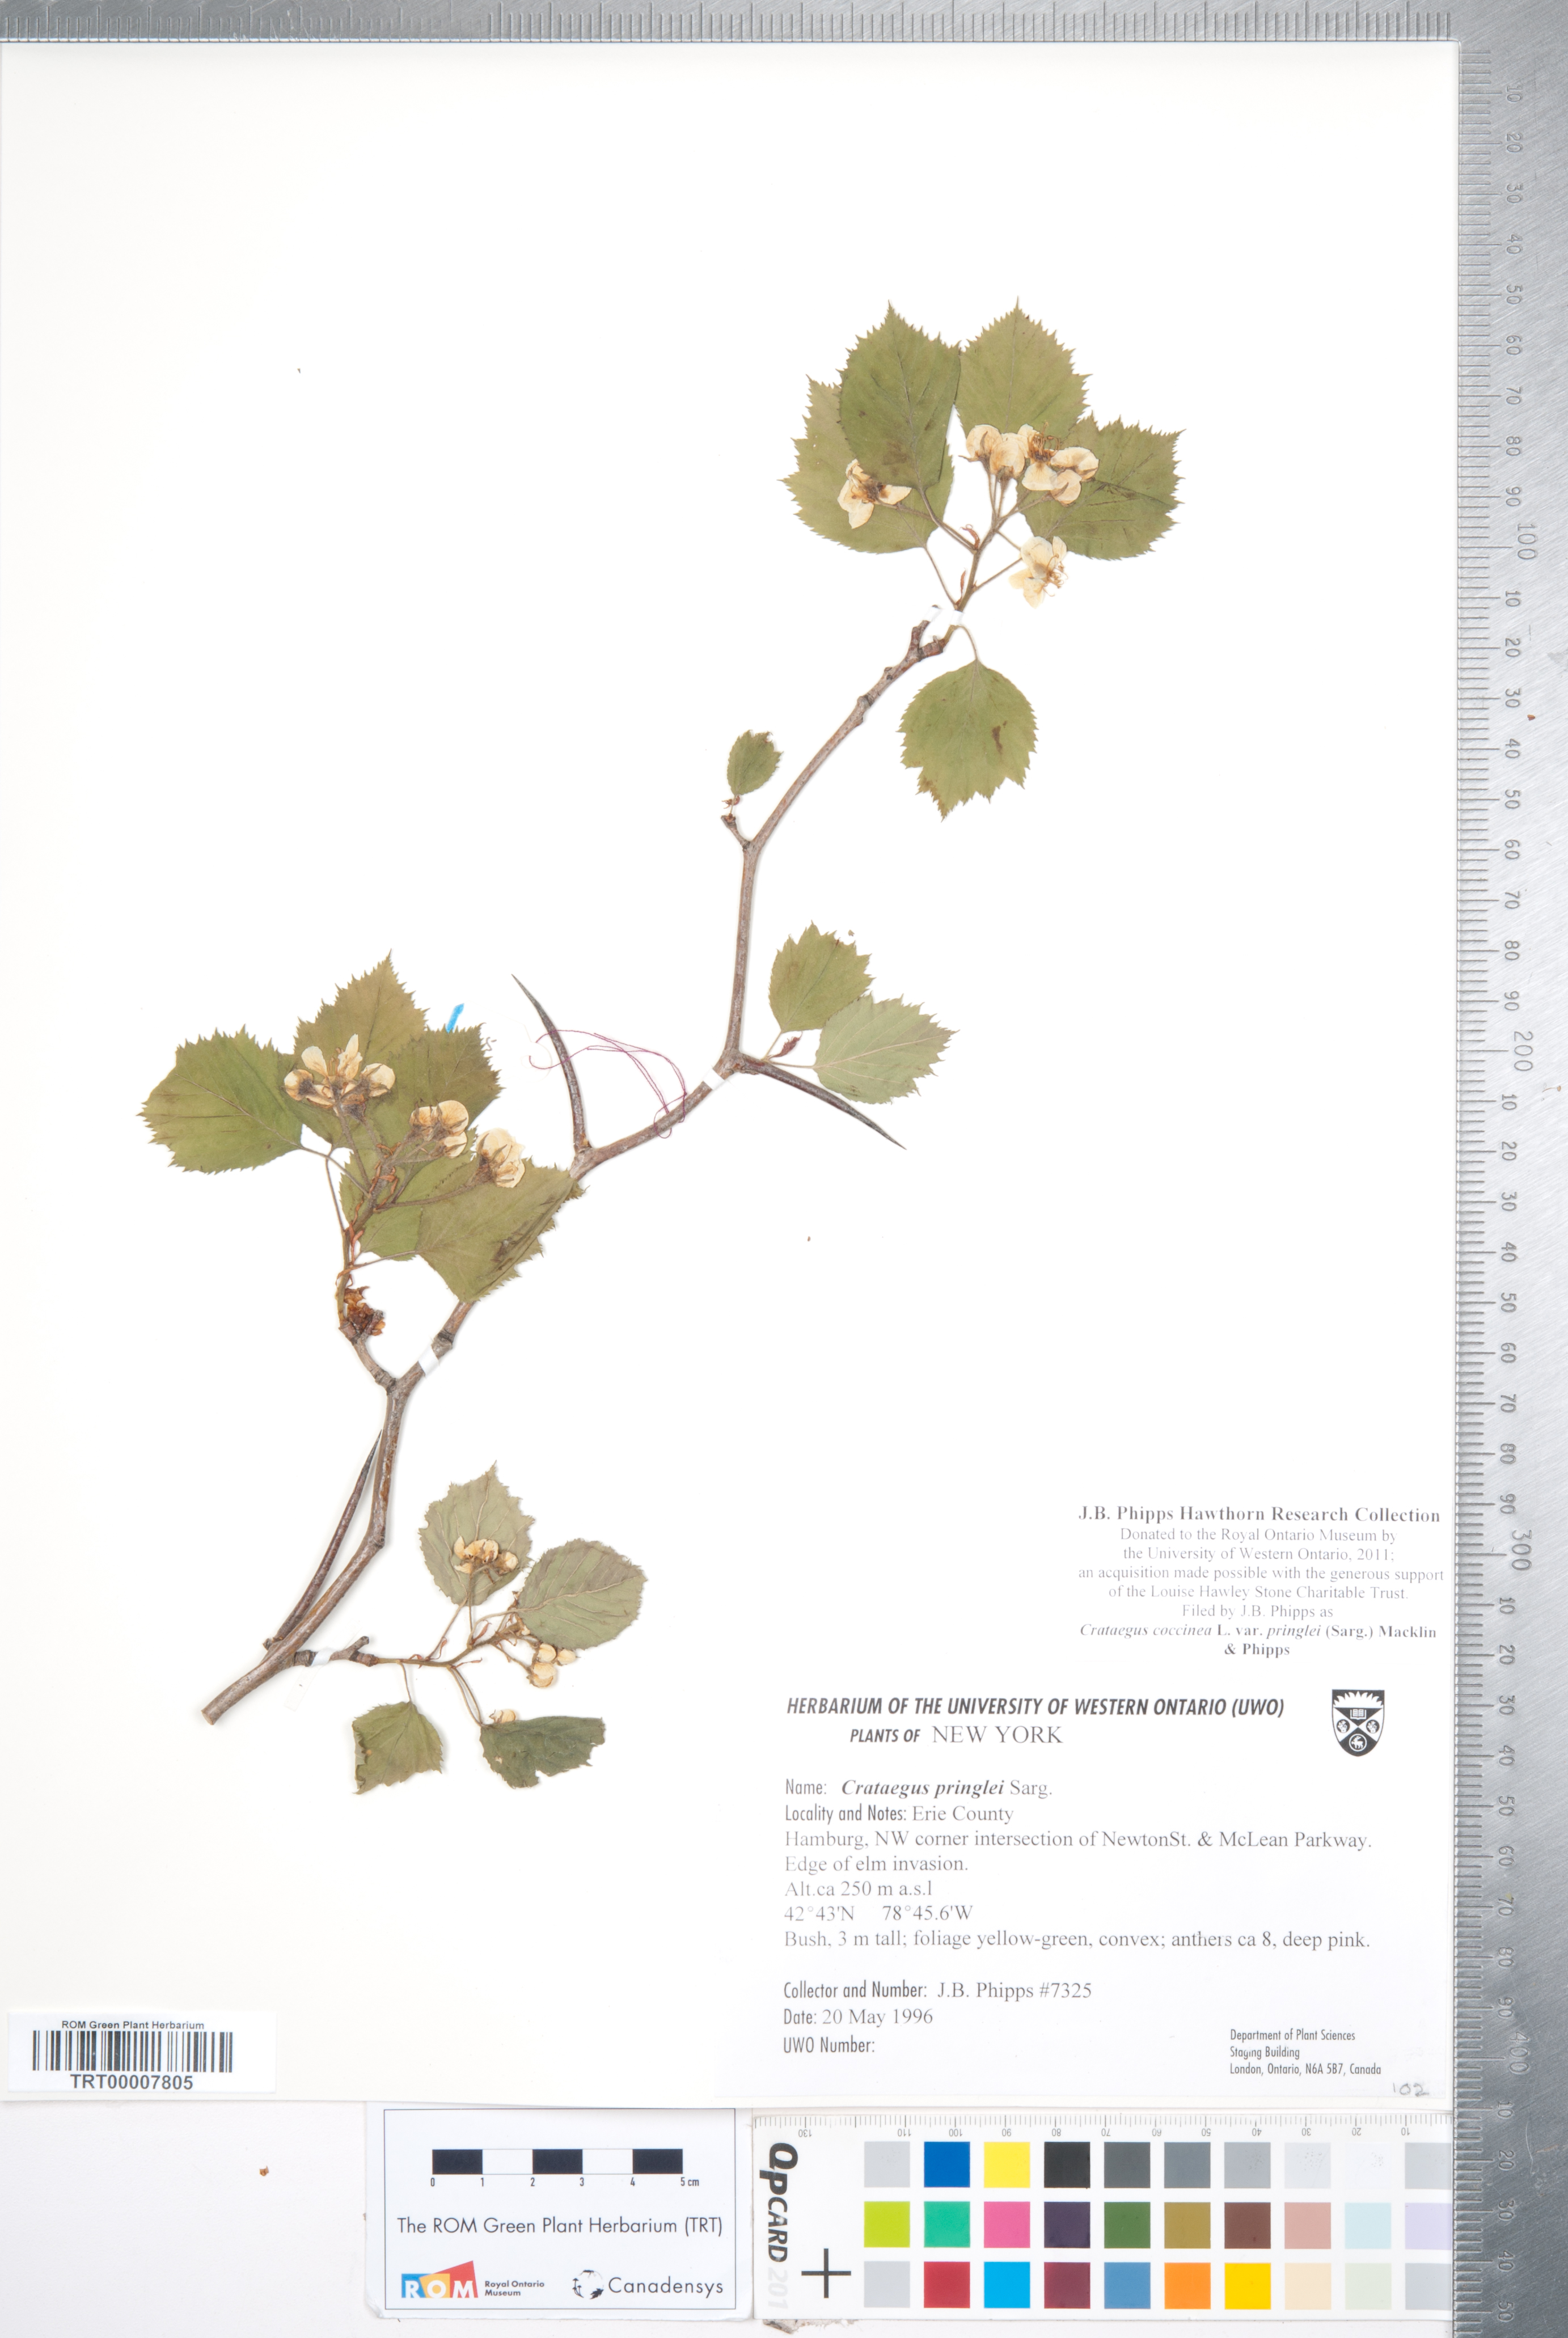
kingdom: Plantae
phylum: Tracheophyta
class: Magnoliopsida
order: Rosales
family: Rosaceae
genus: Crataegus
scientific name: Crataegus coccinea
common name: Scarlet hawthorn
